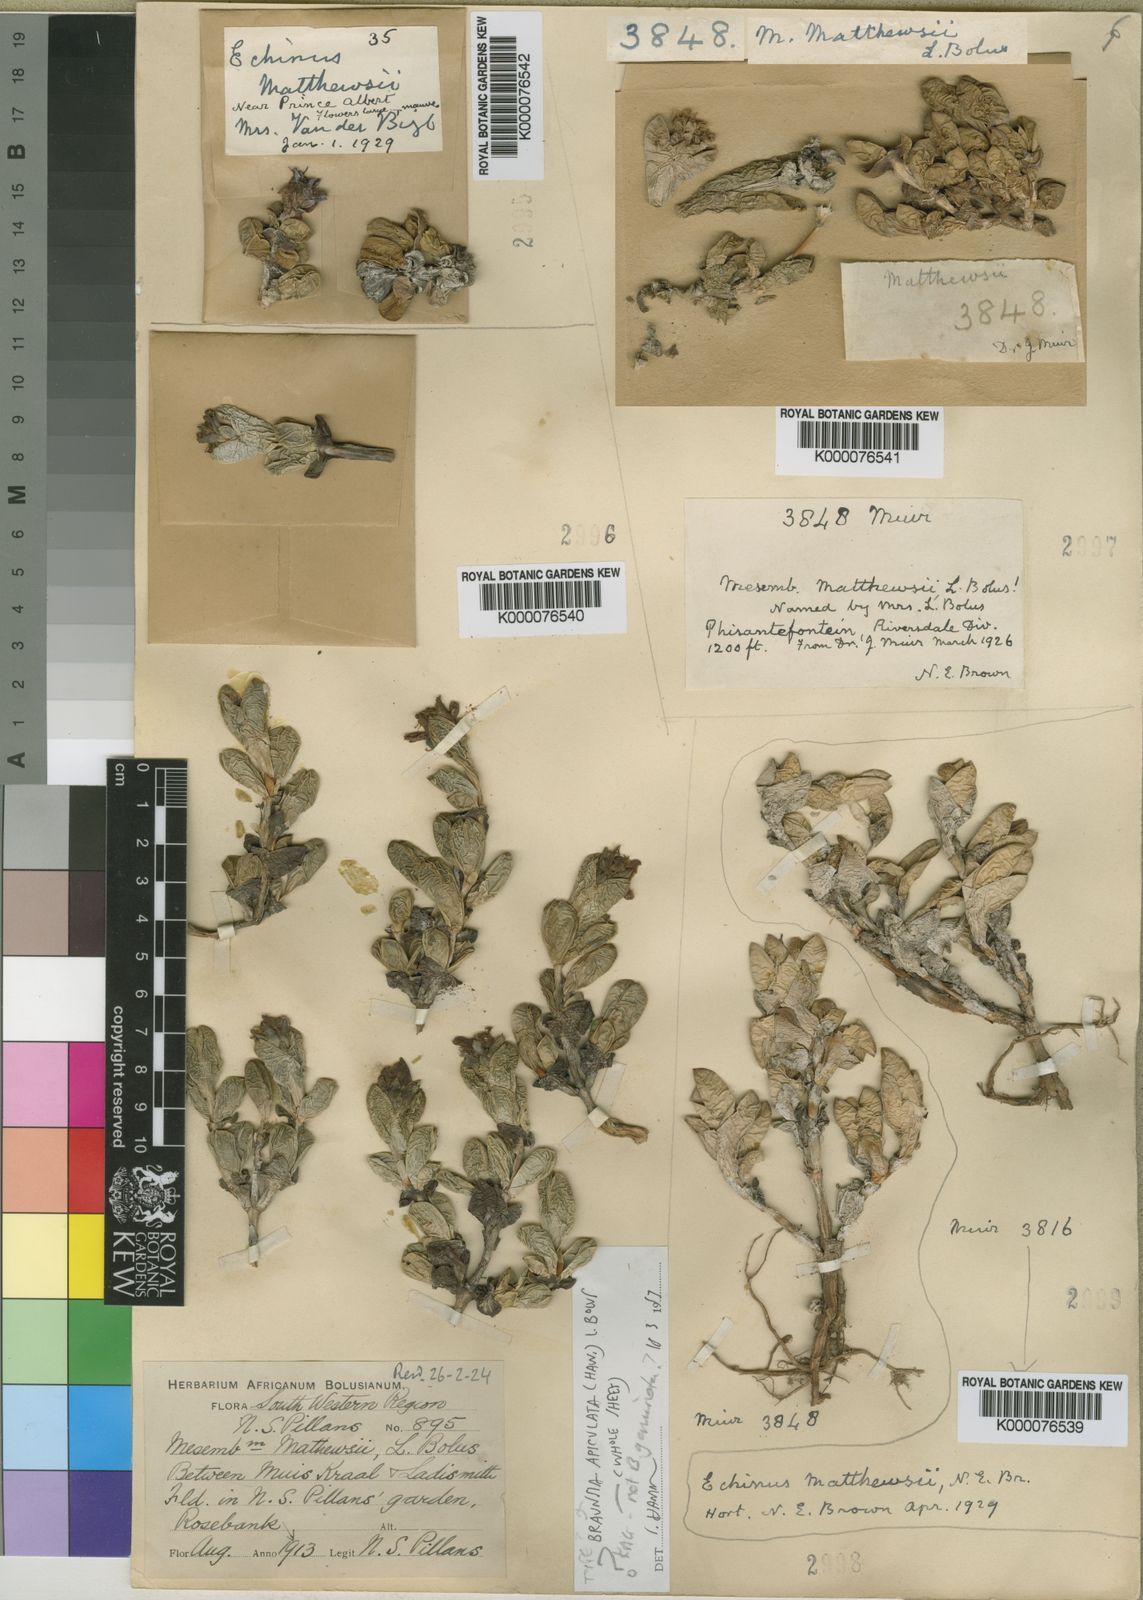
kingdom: Plantae
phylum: Tracheophyta
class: Magnoliopsida
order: Caryophyllales
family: Aizoaceae
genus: Braunsia
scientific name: Braunsia apiculata
